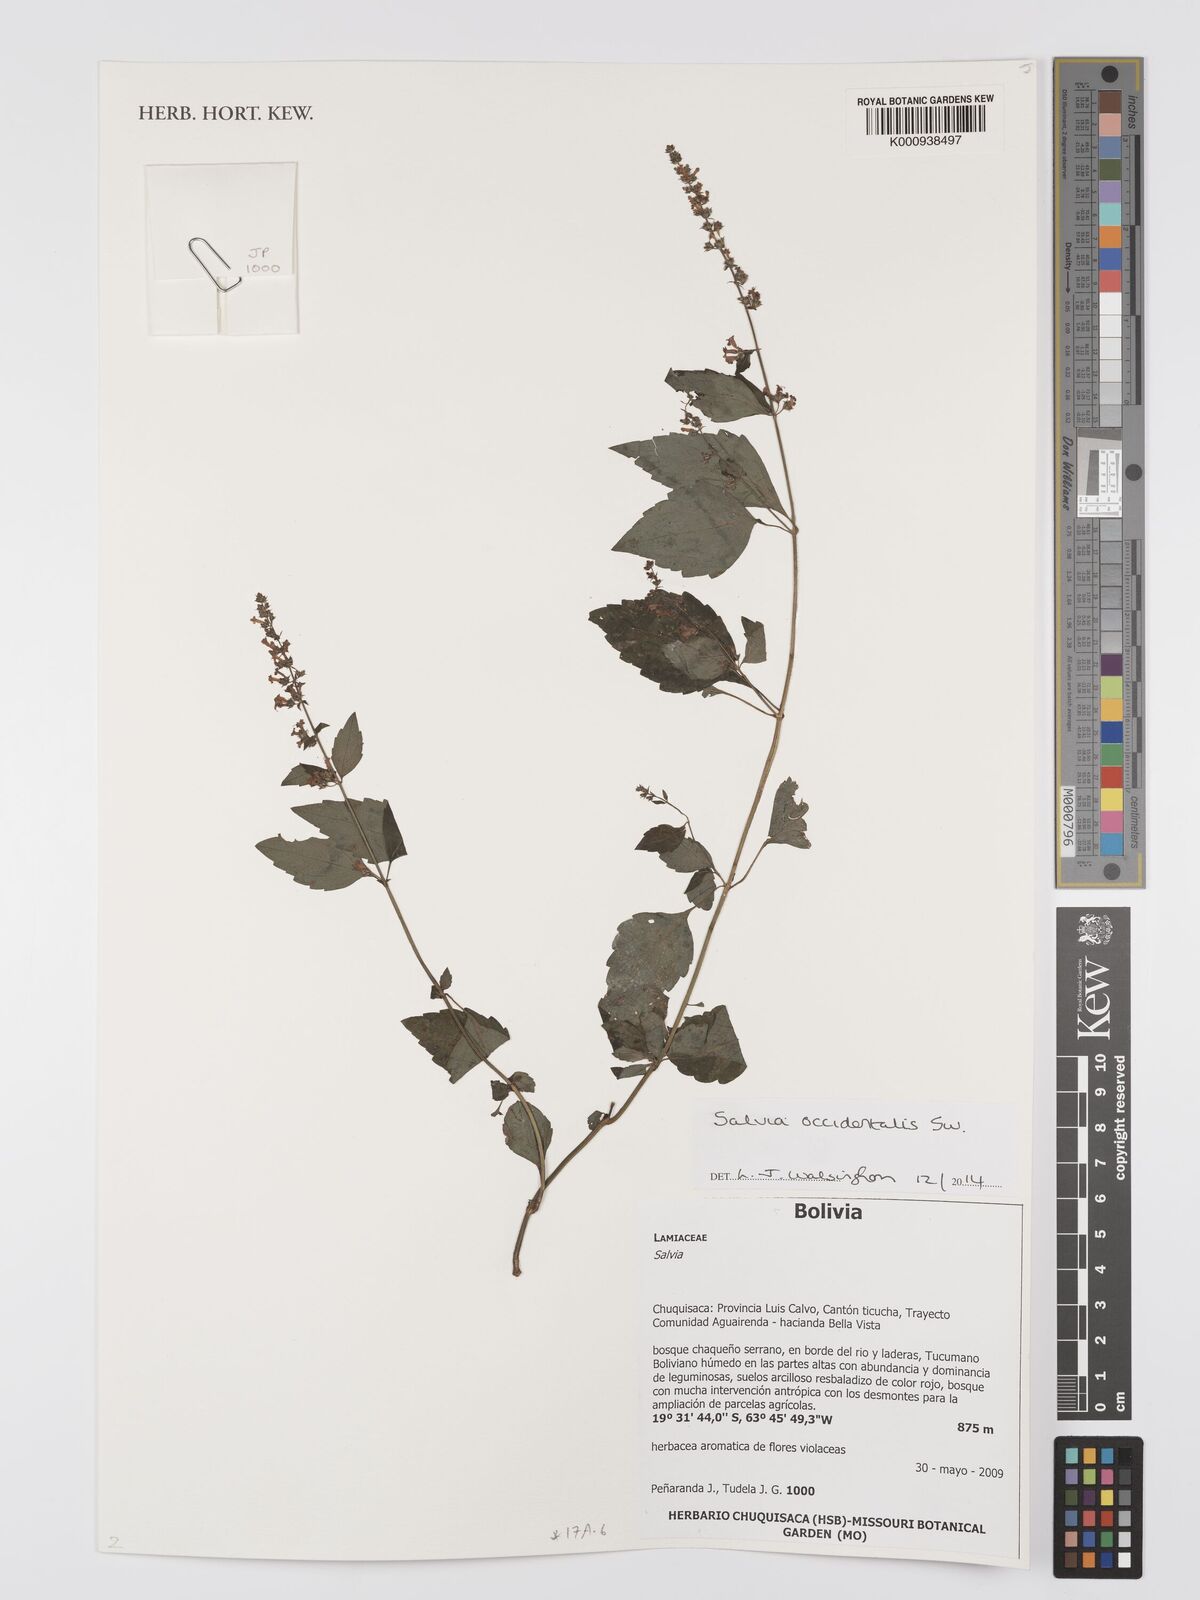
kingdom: Plantae
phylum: Tracheophyta
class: Magnoliopsida
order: Lamiales
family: Lamiaceae
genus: Salvia
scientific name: Salvia occidentalis
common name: West indian sage
